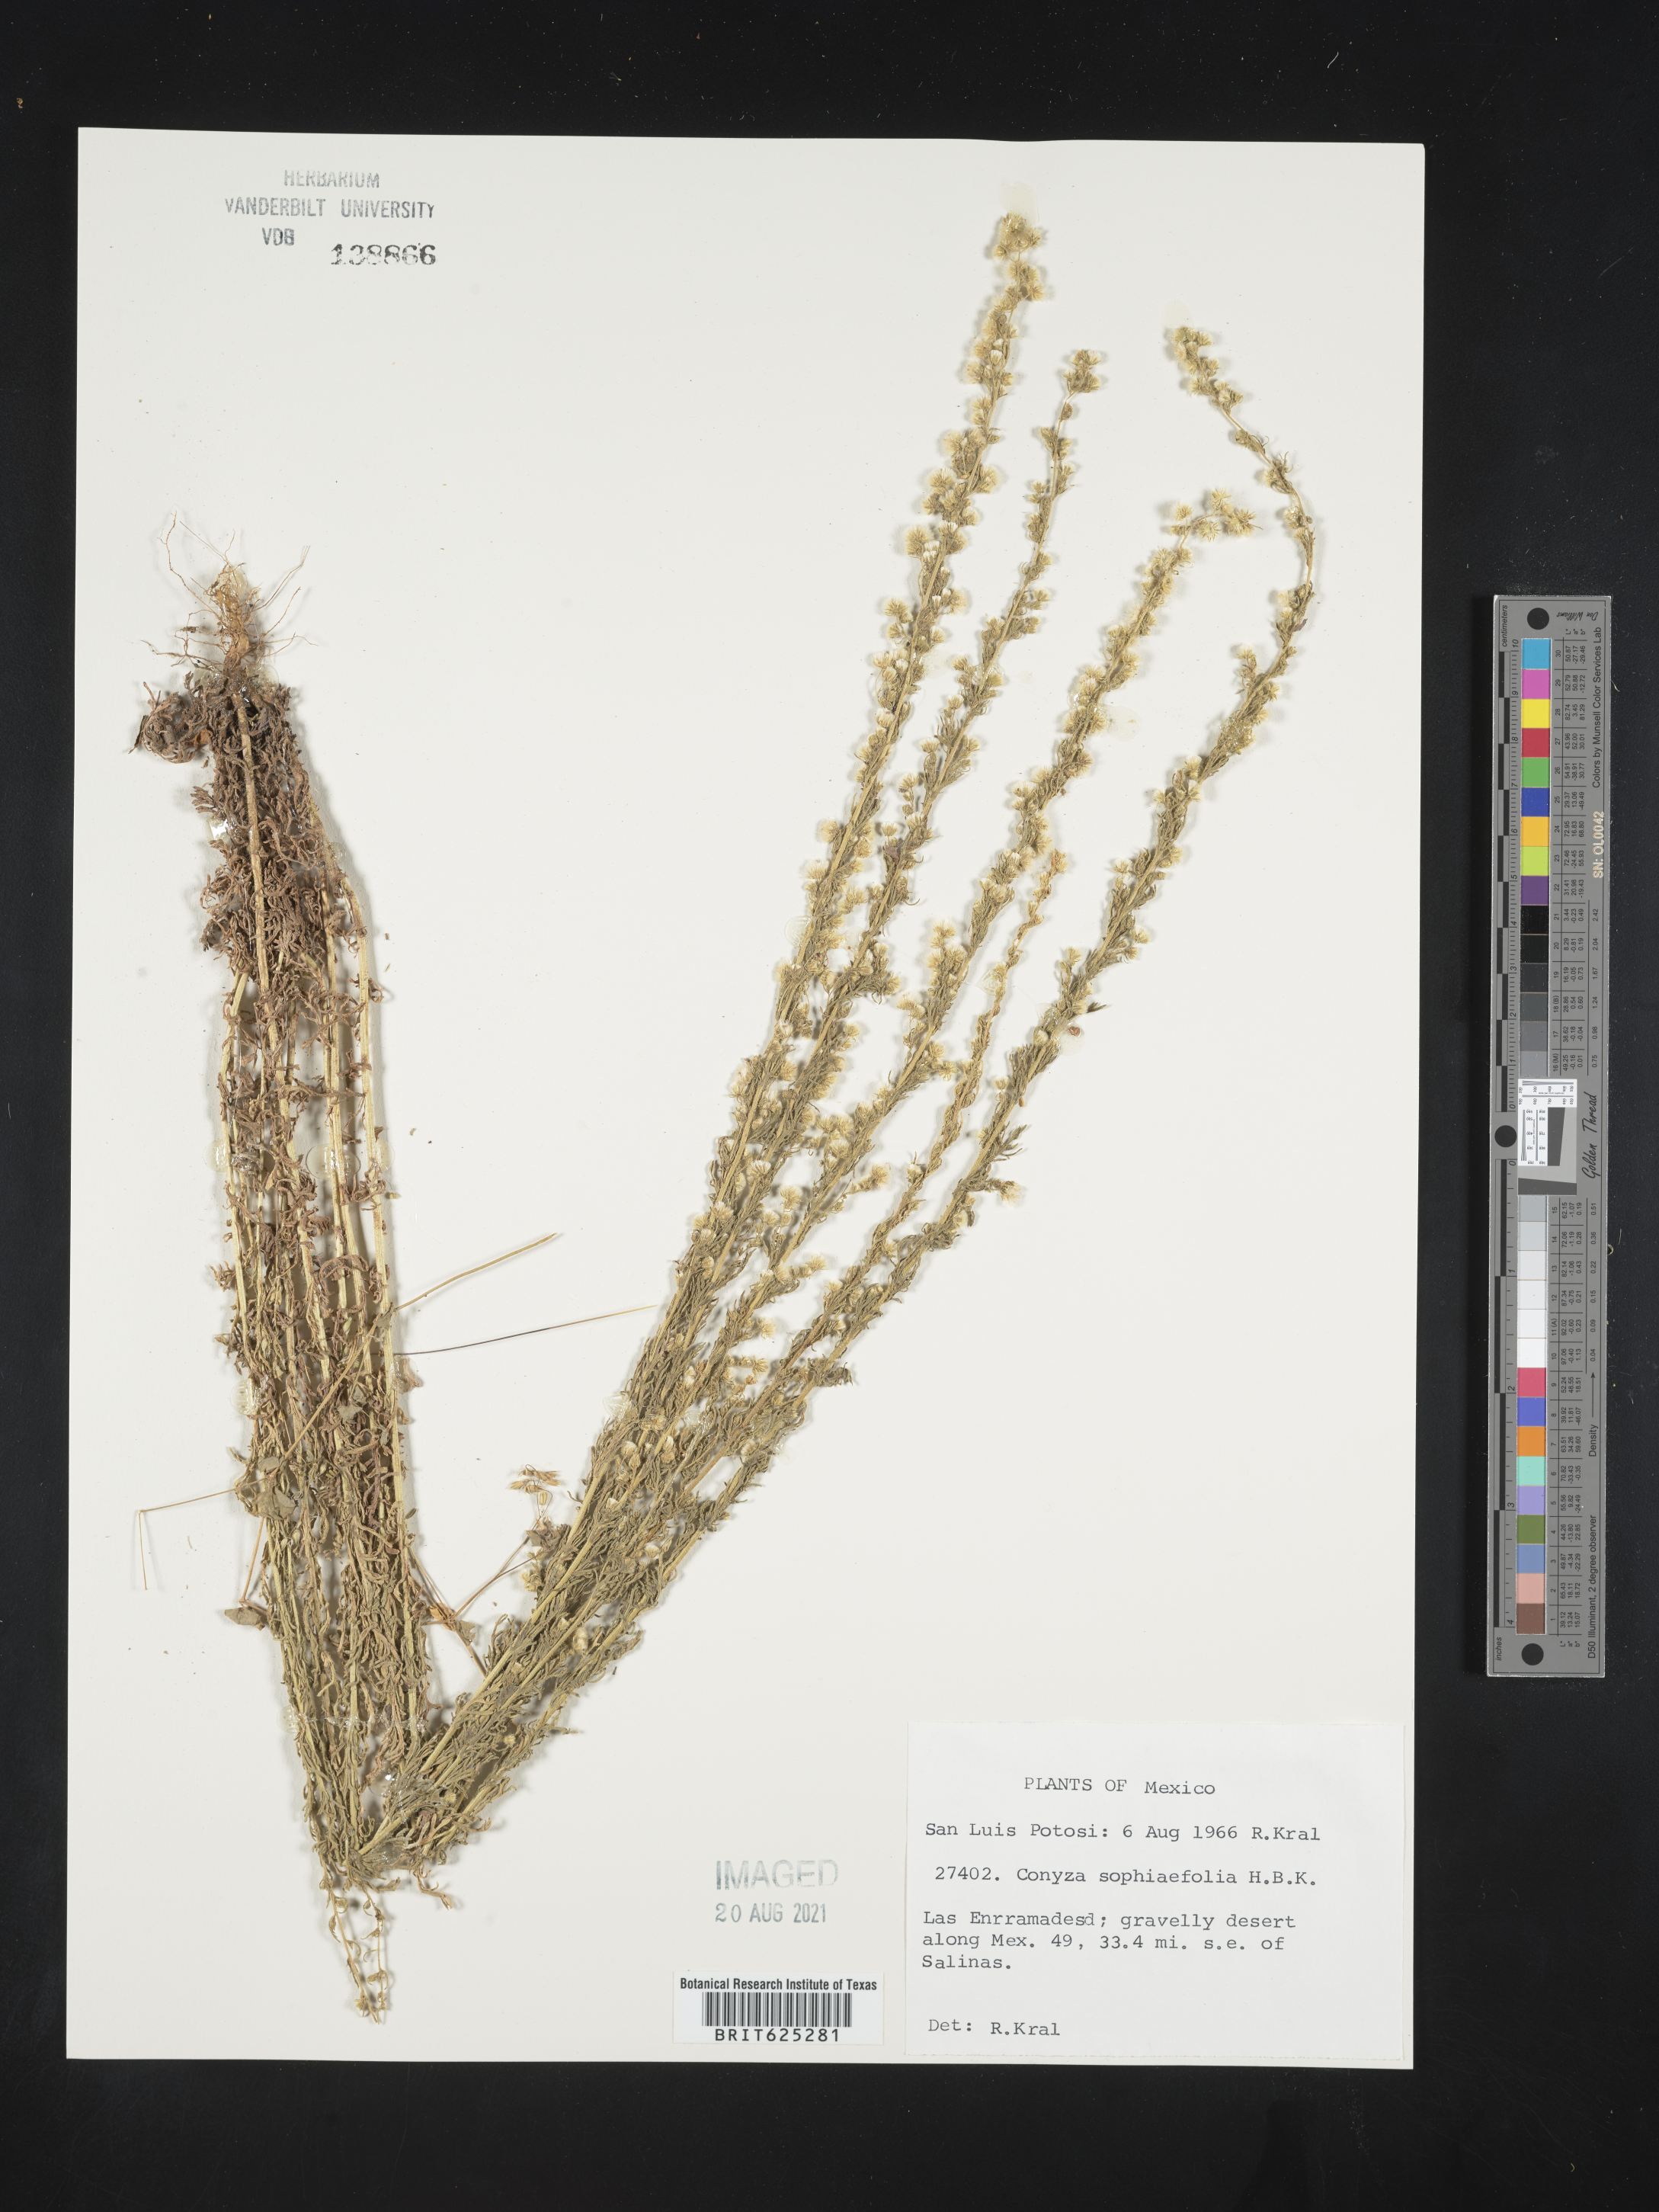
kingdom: Plantae
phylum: Tracheophyta
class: Magnoliopsida
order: Asterales
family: Asteraceae
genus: Conyza
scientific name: Conyza
